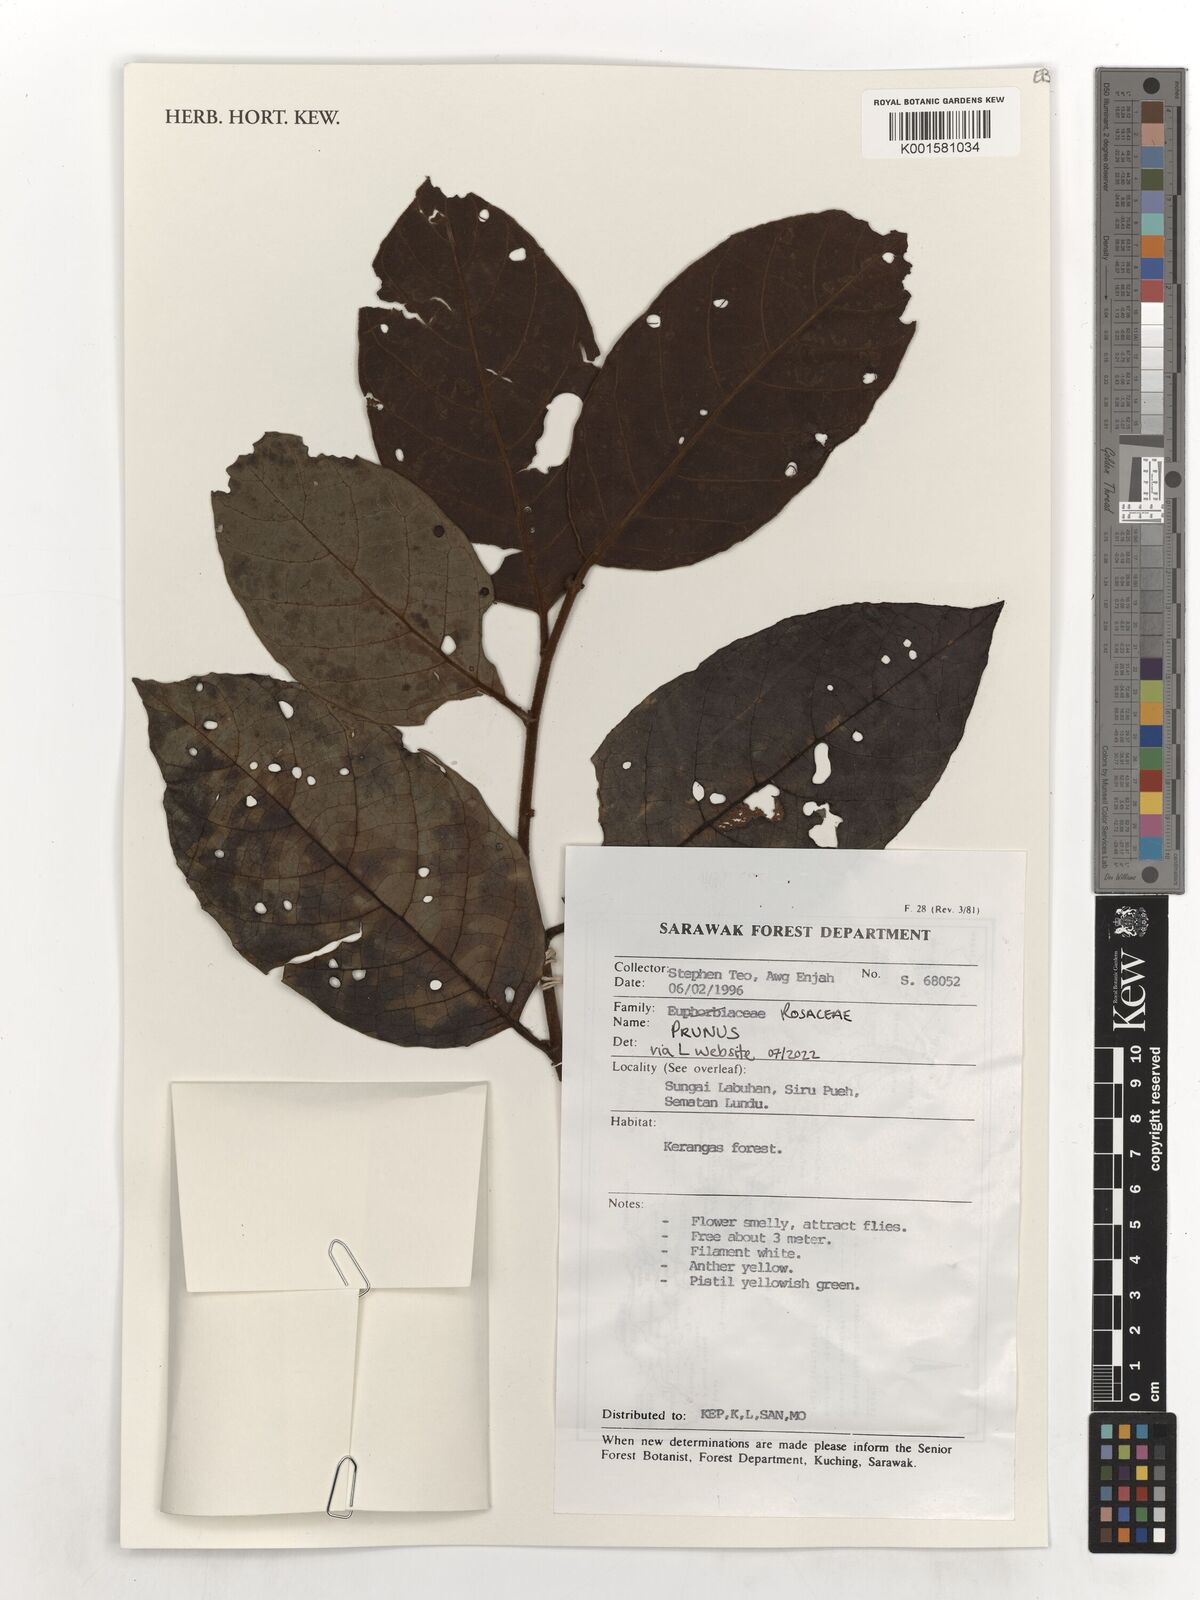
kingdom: Plantae
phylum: Tracheophyta
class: Magnoliopsida
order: Rosales
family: Rosaceae
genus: Prunus
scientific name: Prunus
